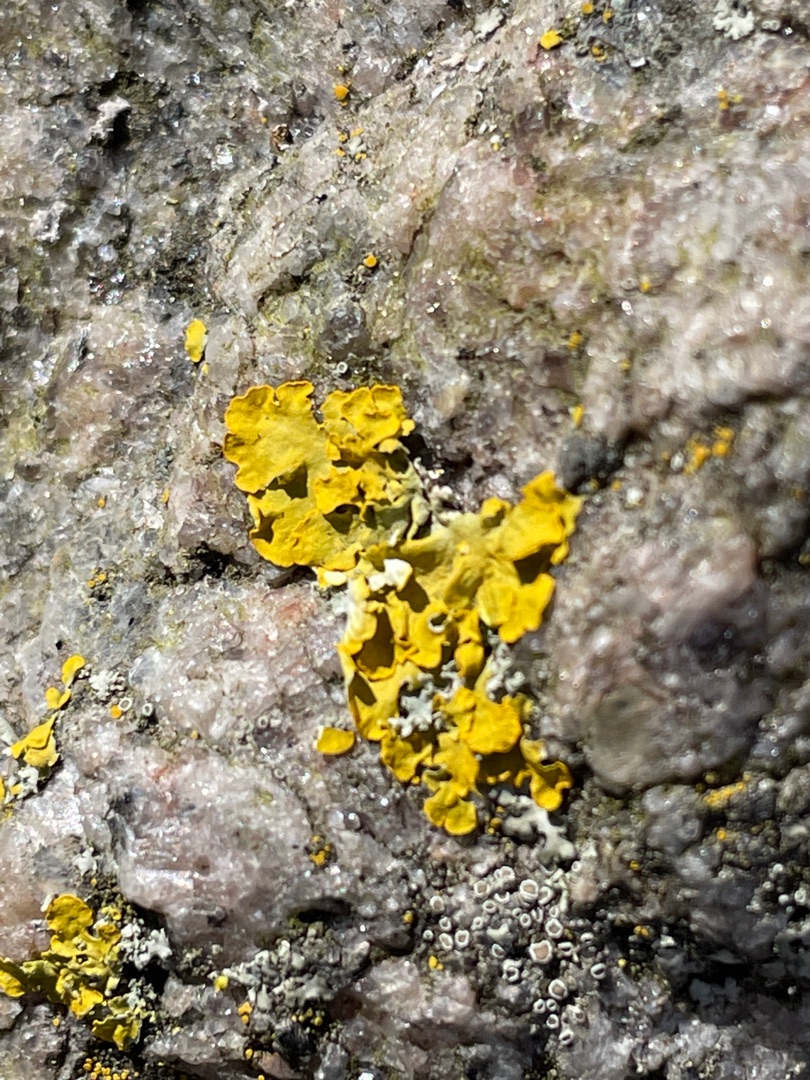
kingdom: Fungi
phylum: Ascomycota
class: Lecanoromycetes
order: Teloschistales
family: Teloschistaceae
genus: Xanthoria
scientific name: Xanthoria parietina
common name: Almindelig væggelav
